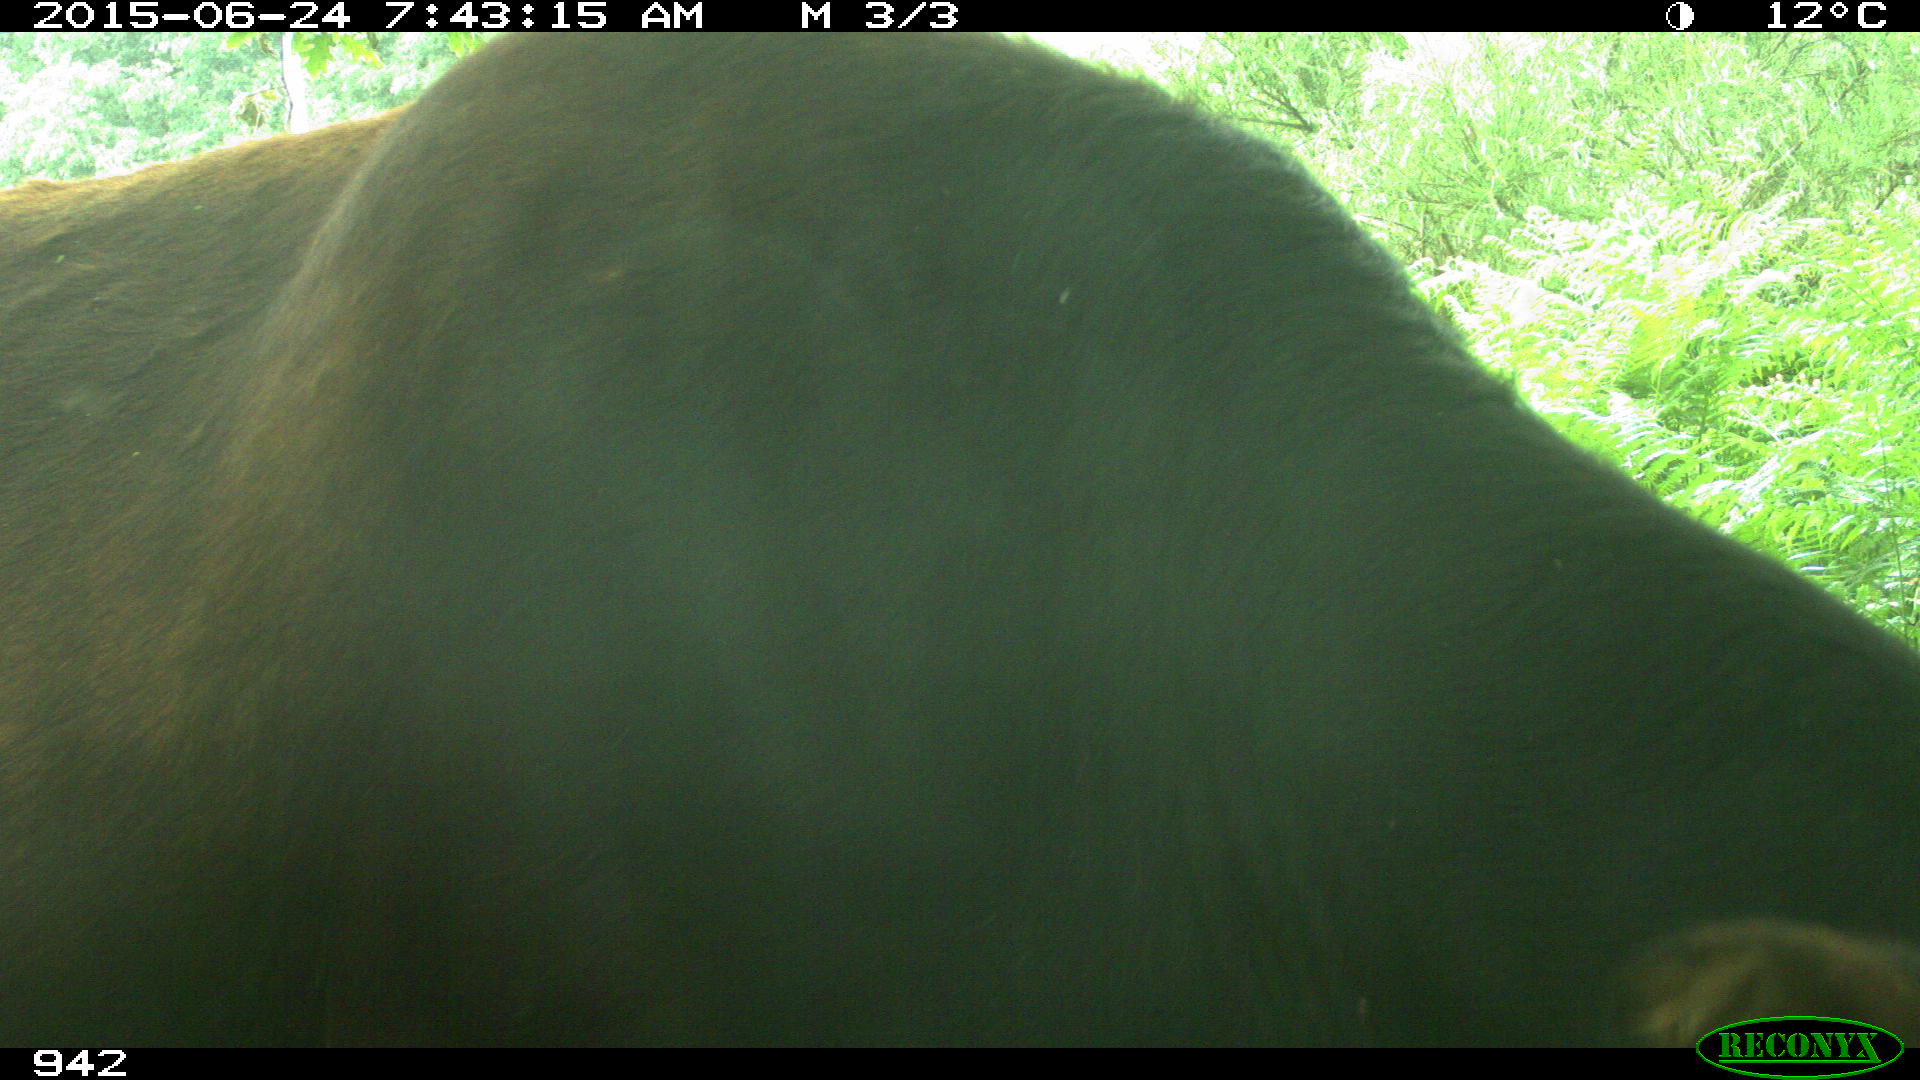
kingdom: Animalia
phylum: Chordata
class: Mammalia
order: Artiodactyla
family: Bovidae
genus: Bos
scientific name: Bos taurus
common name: Domesticated cattle
